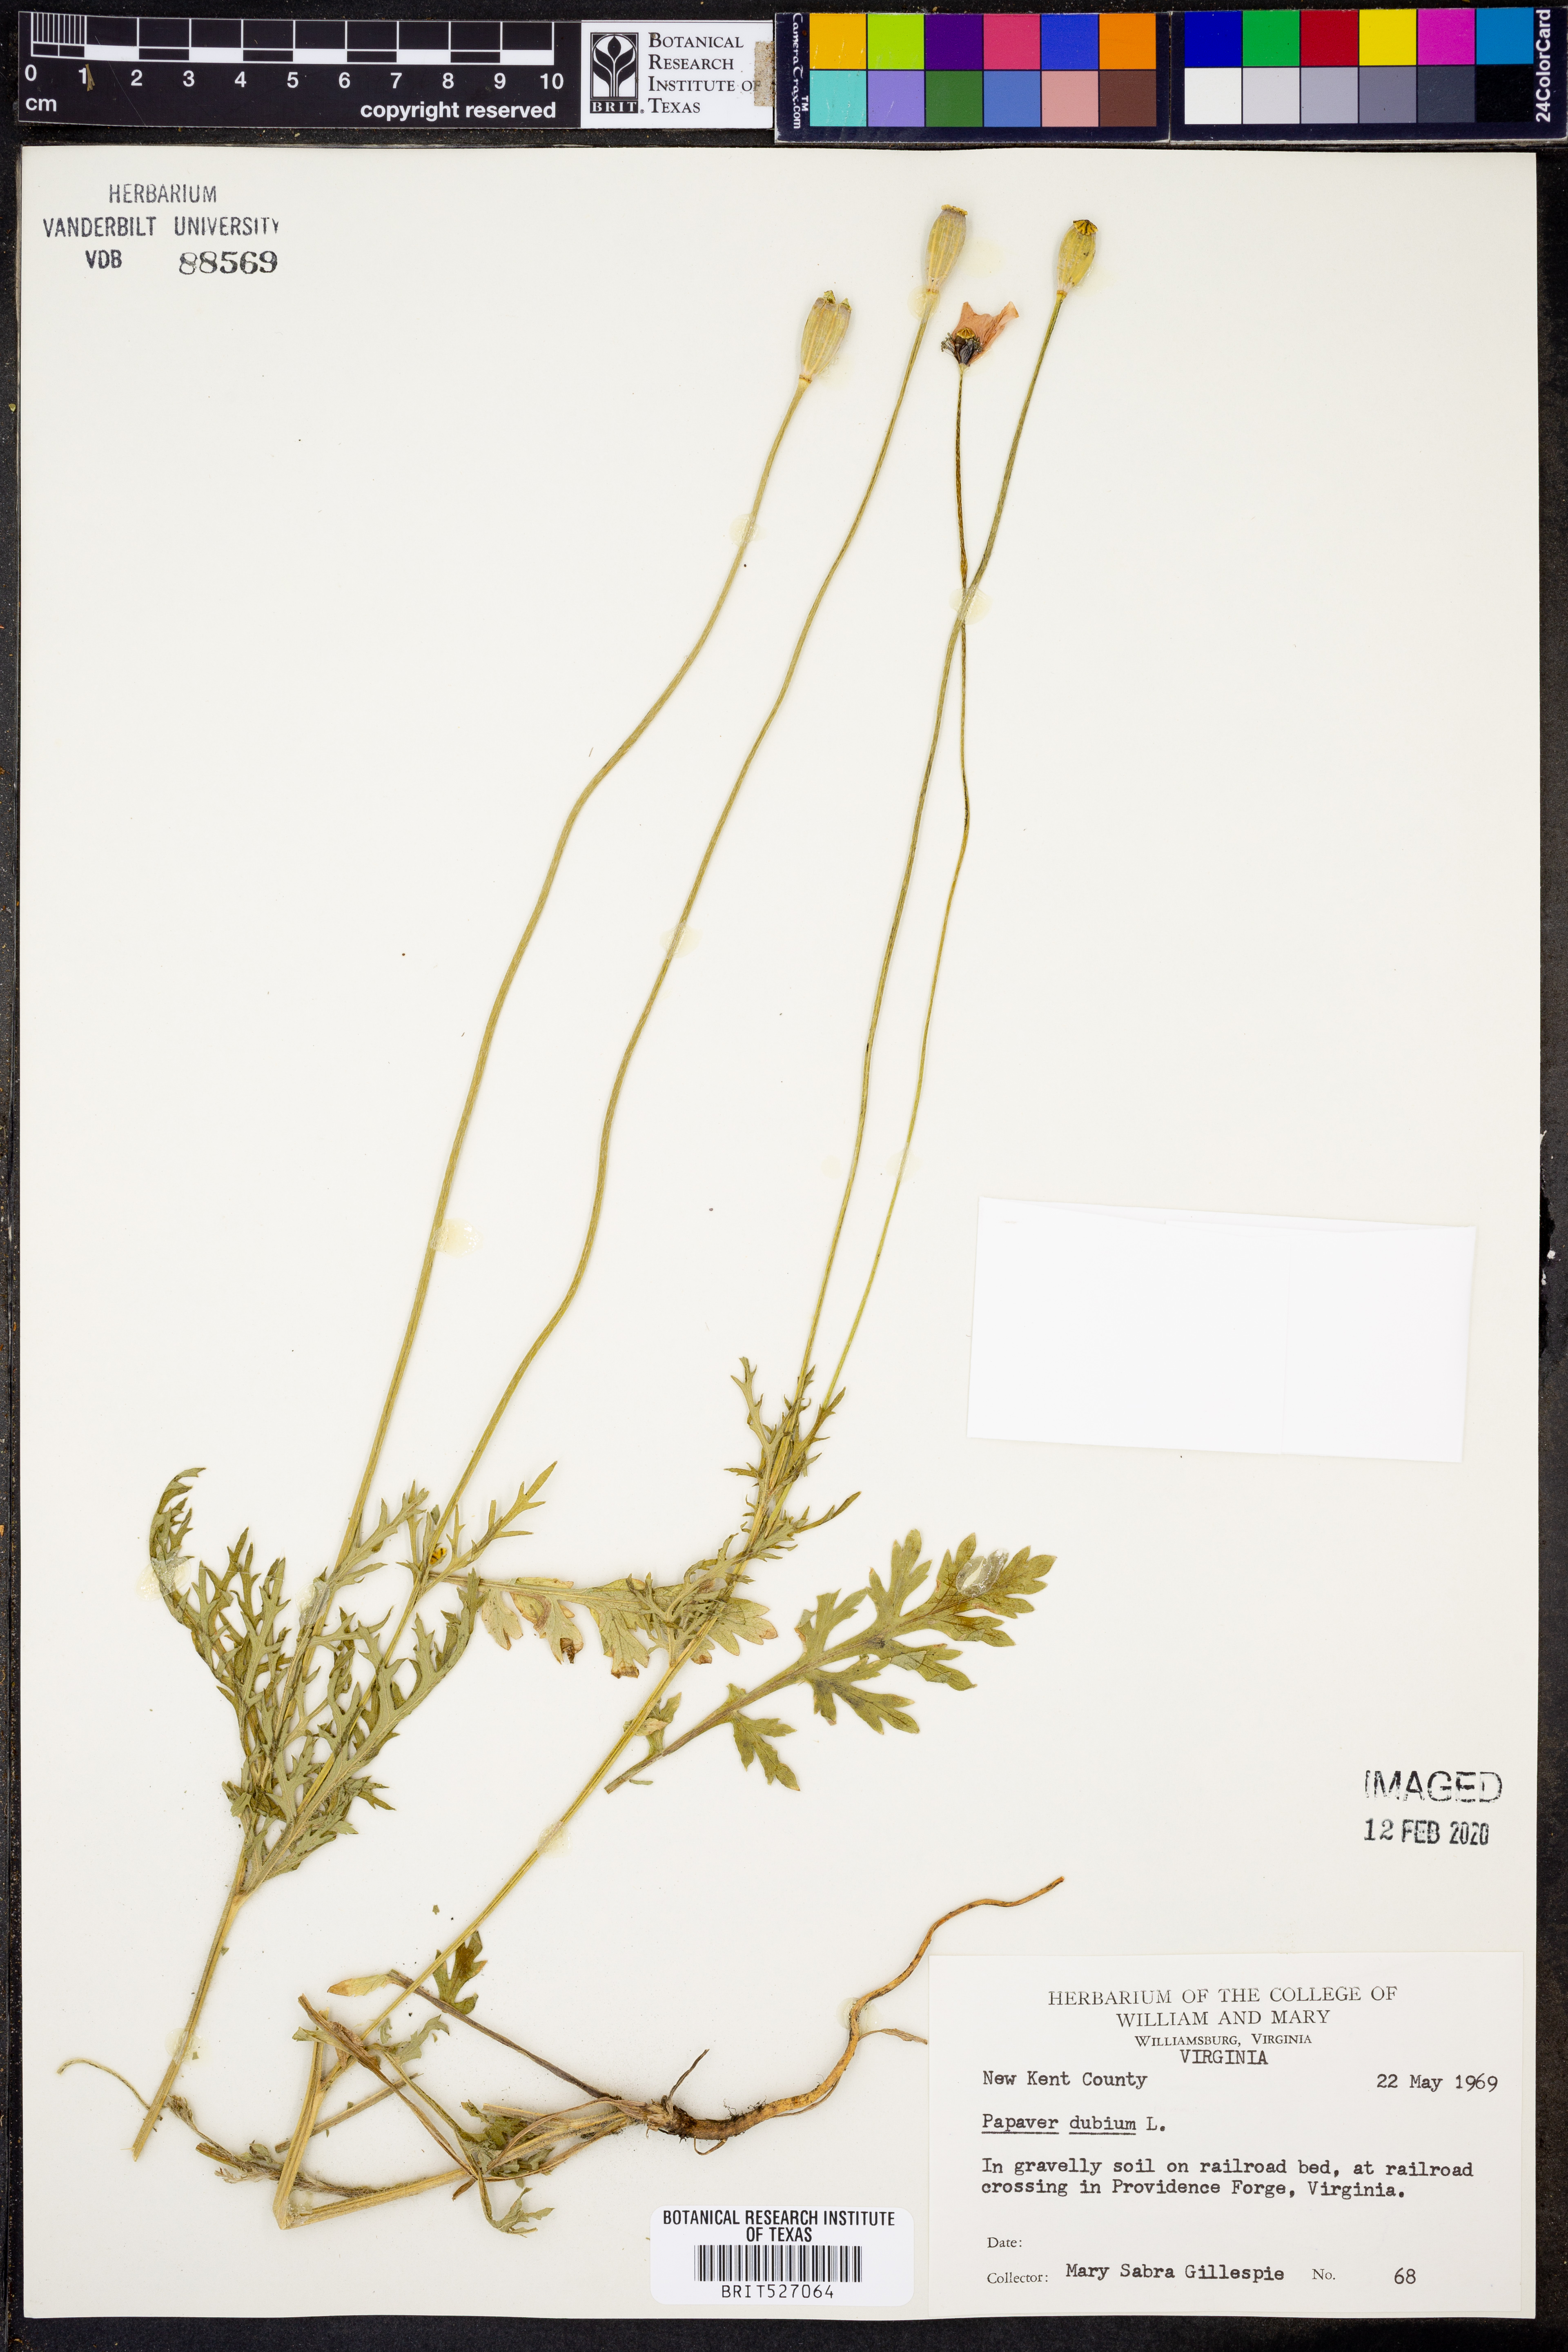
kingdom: Plantae
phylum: Tracheophyta
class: Magnoliopsida
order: Ranunculales
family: Papaveraceae
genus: Papaver
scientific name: Papaver dubium
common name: Long-headed poppy
